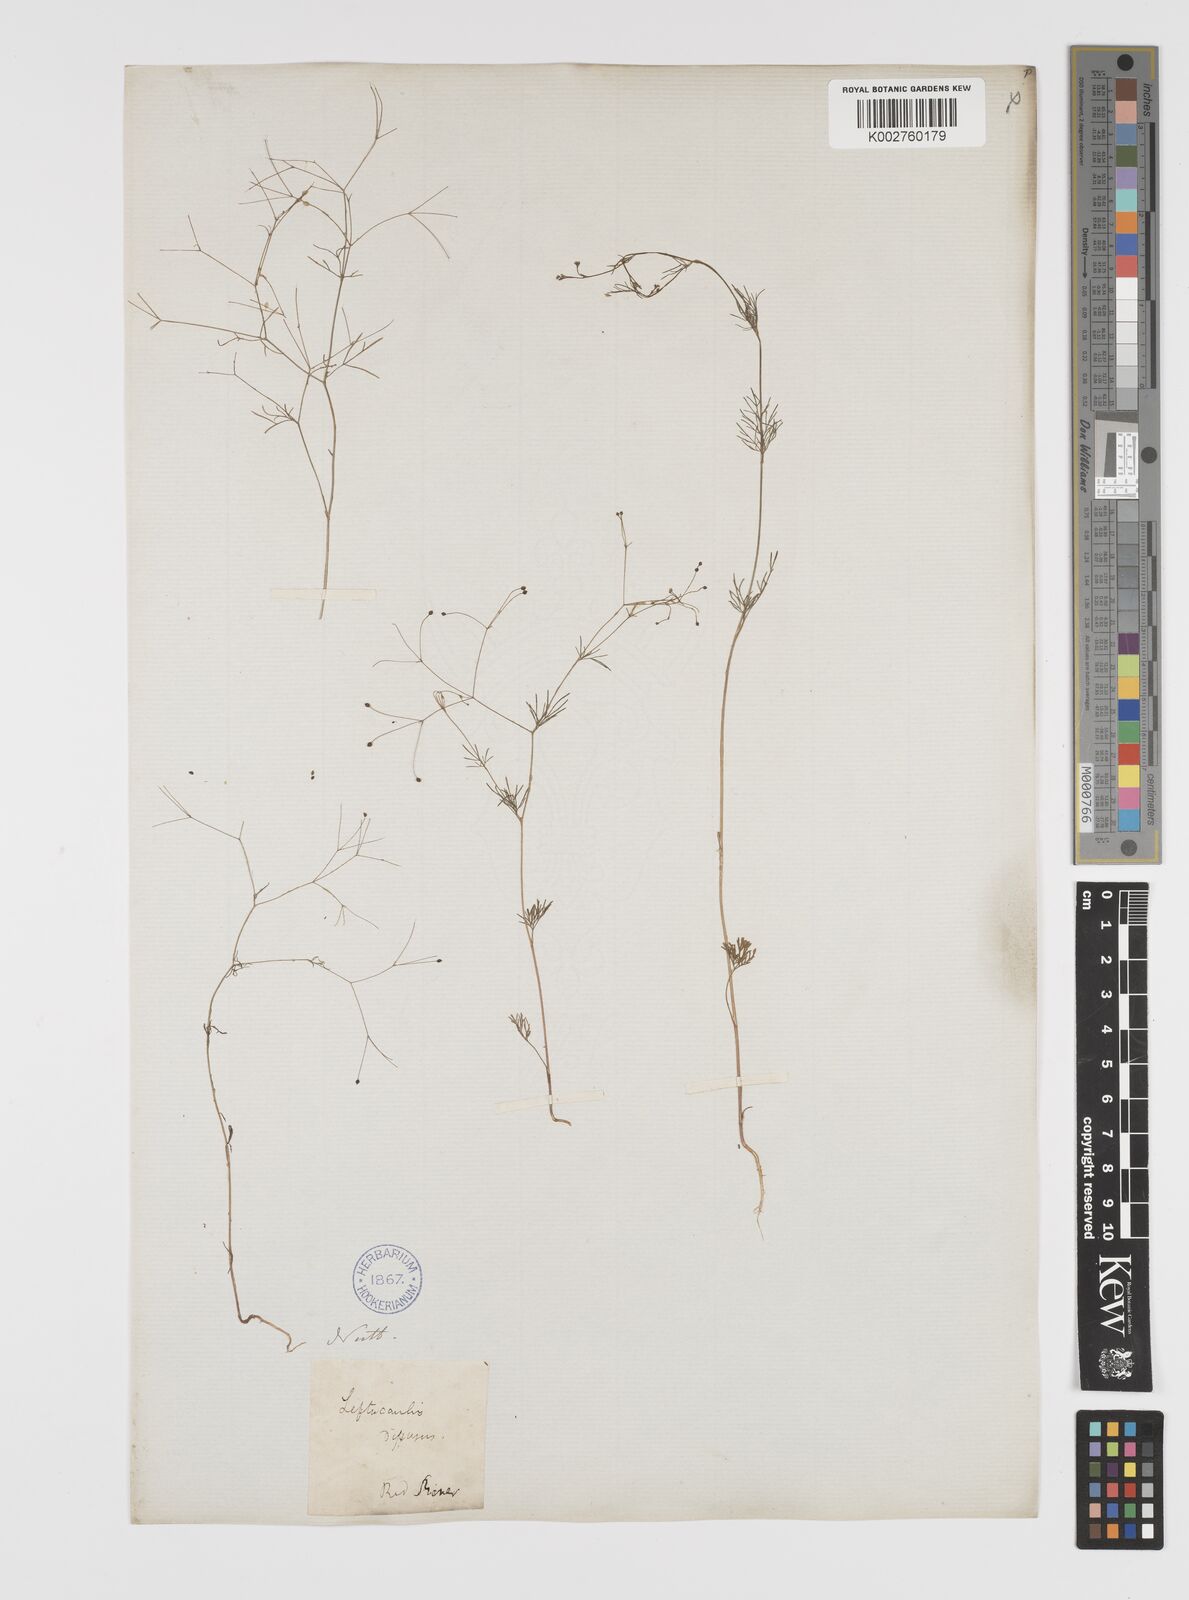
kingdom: Plantae
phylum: Tracheophyta
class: Magnoliopsida
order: Apiales
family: Apiaceae
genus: Spermolepis
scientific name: Spermolepis divaricata
